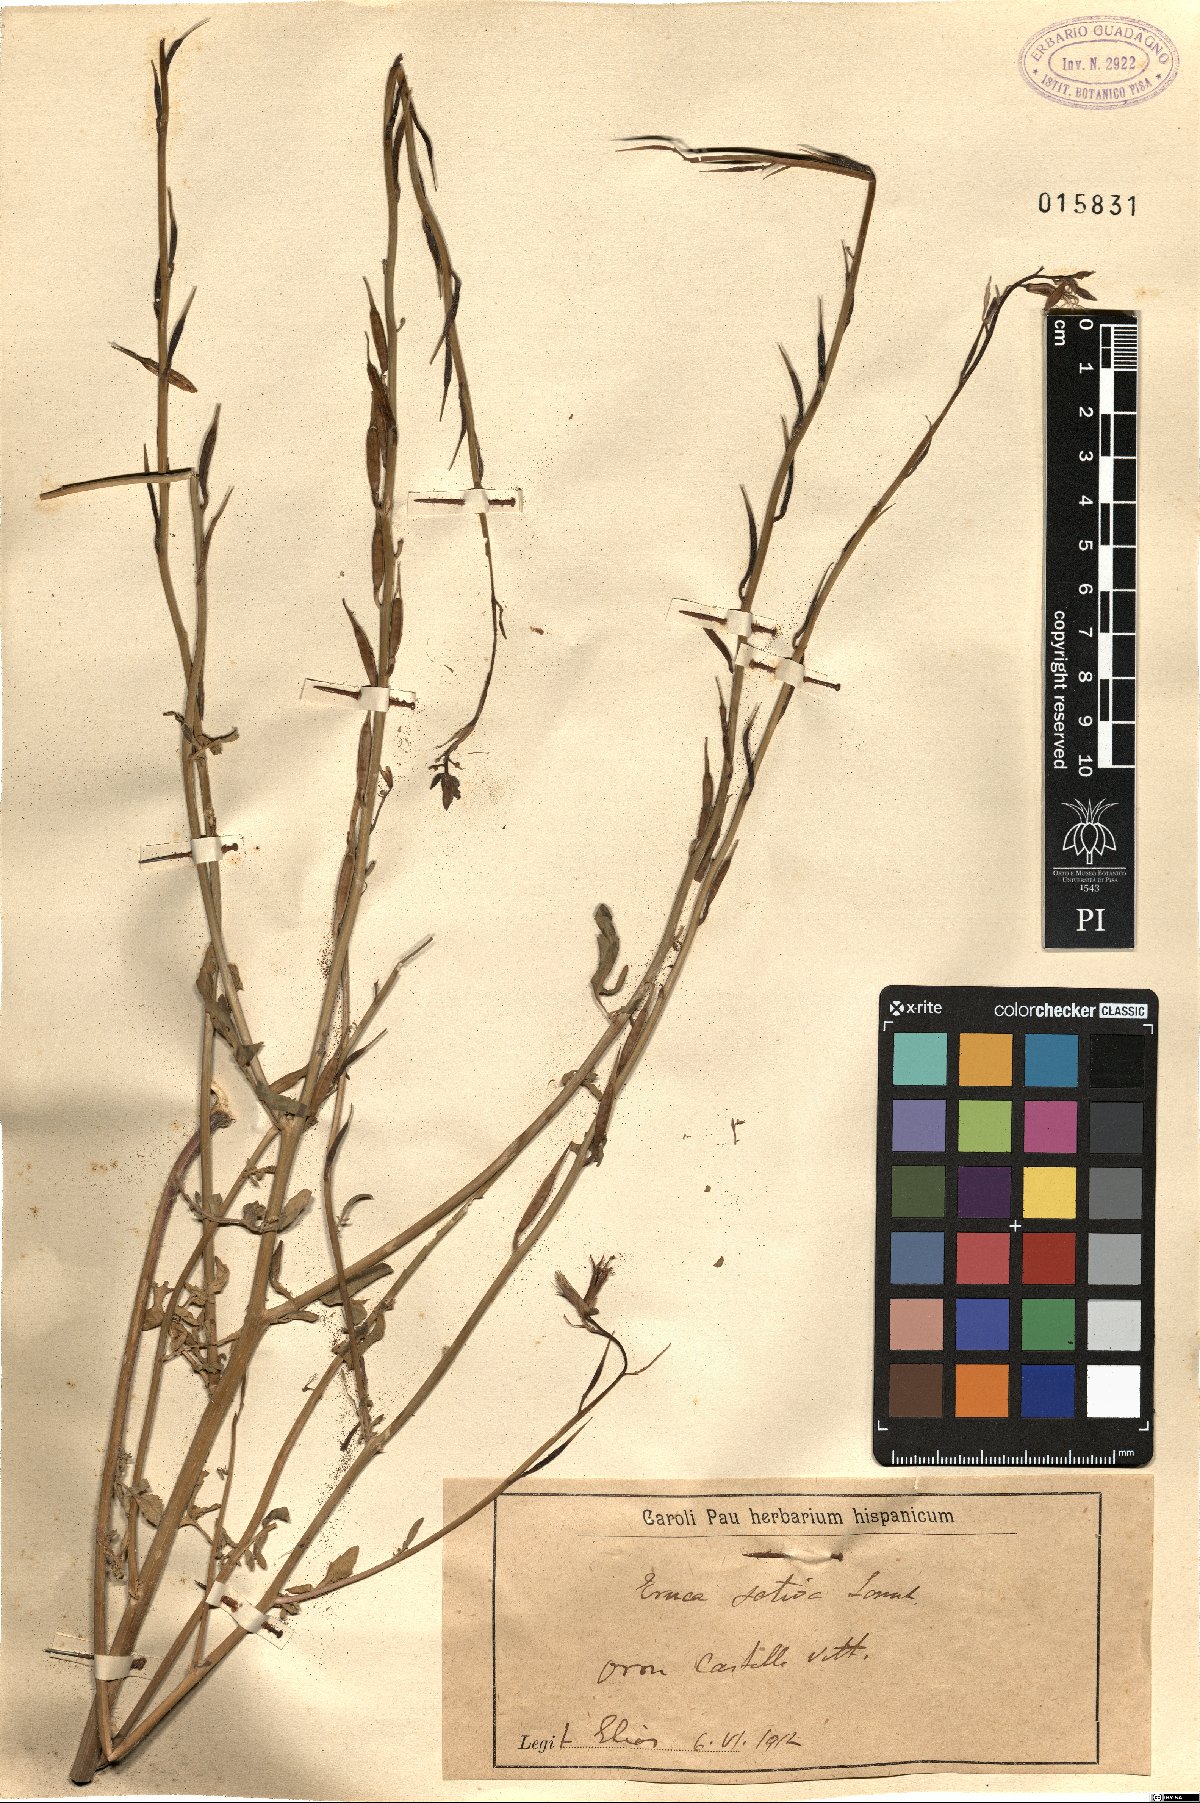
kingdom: Plantae
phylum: Tracheophyta
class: Magnoliopsida
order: Brassicales
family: Brassicaceae
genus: Eruca
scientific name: Eruca vesicaria
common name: Garden rocket
